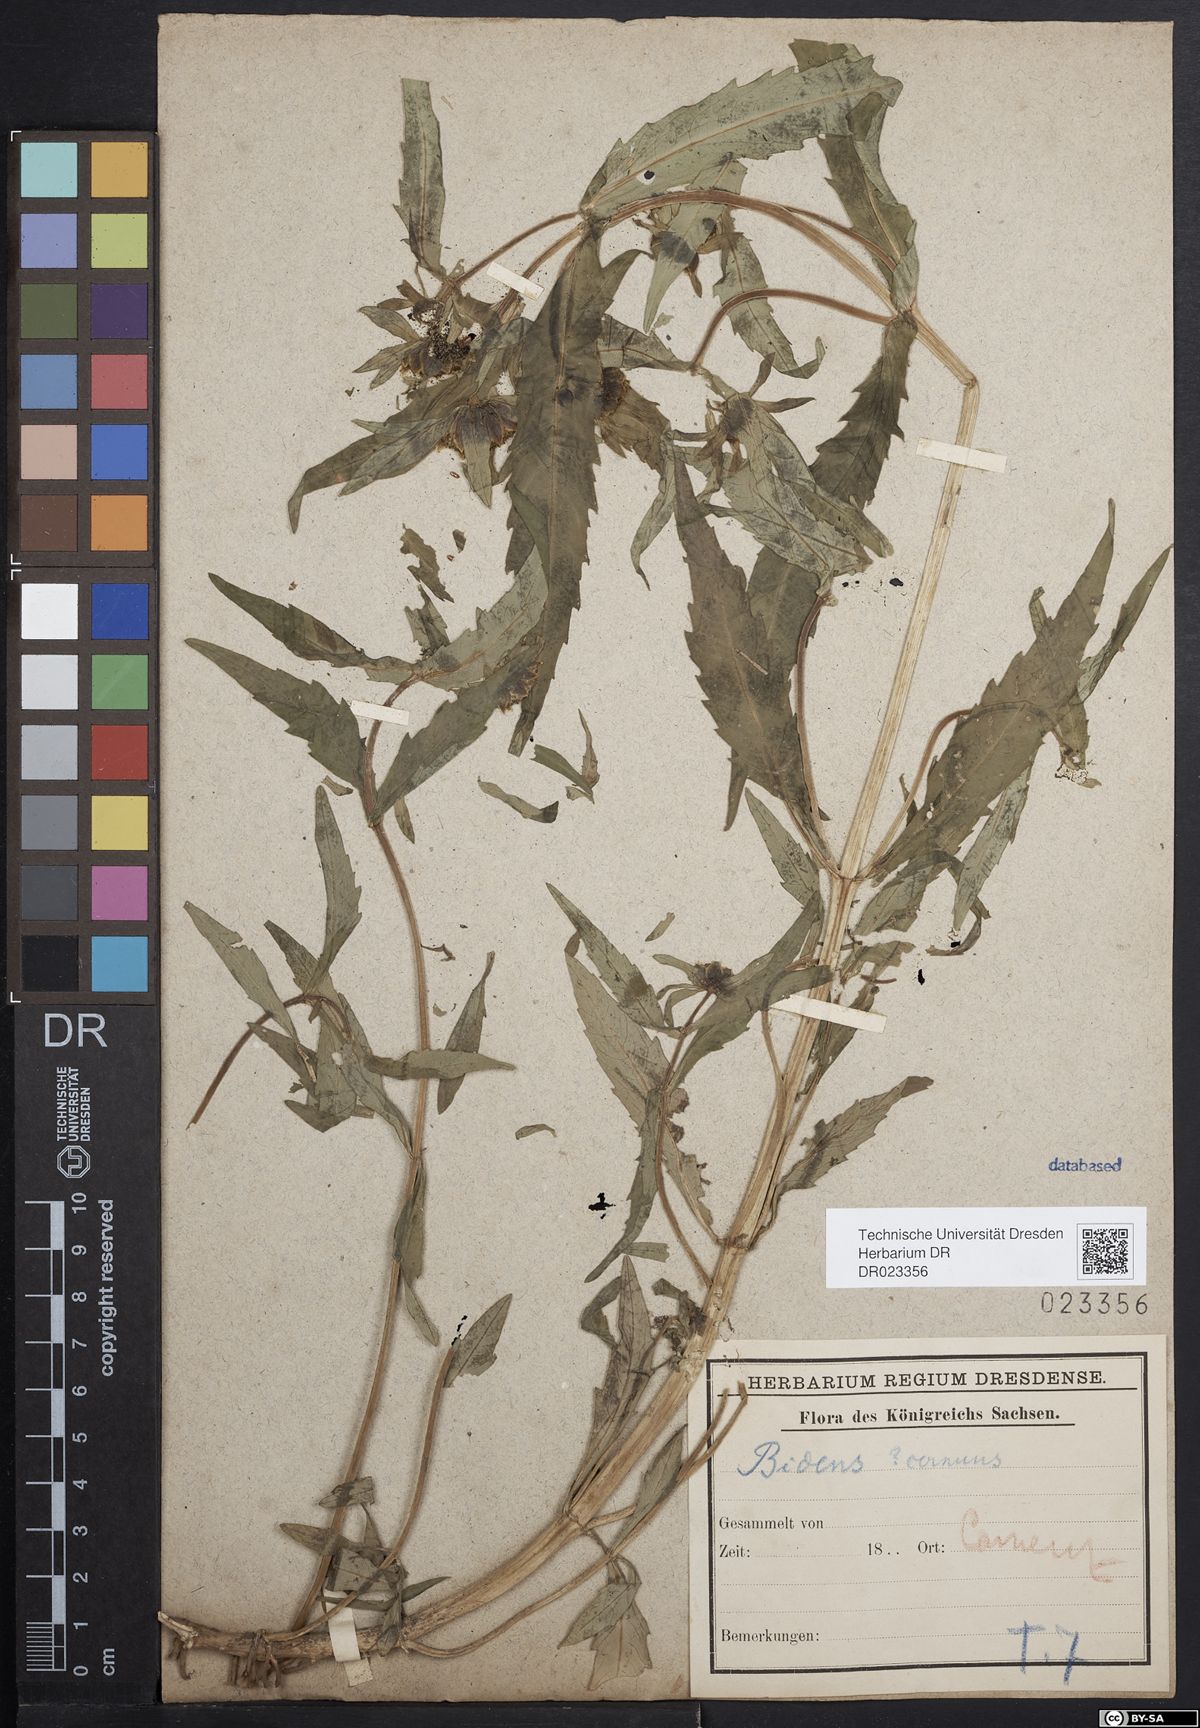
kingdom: Plantae
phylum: Tracheophyta
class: Magnoliopsida
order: Asterales
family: Asteraceae
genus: Bidens
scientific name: Bidens cernua
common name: Nodding bur-marigold
